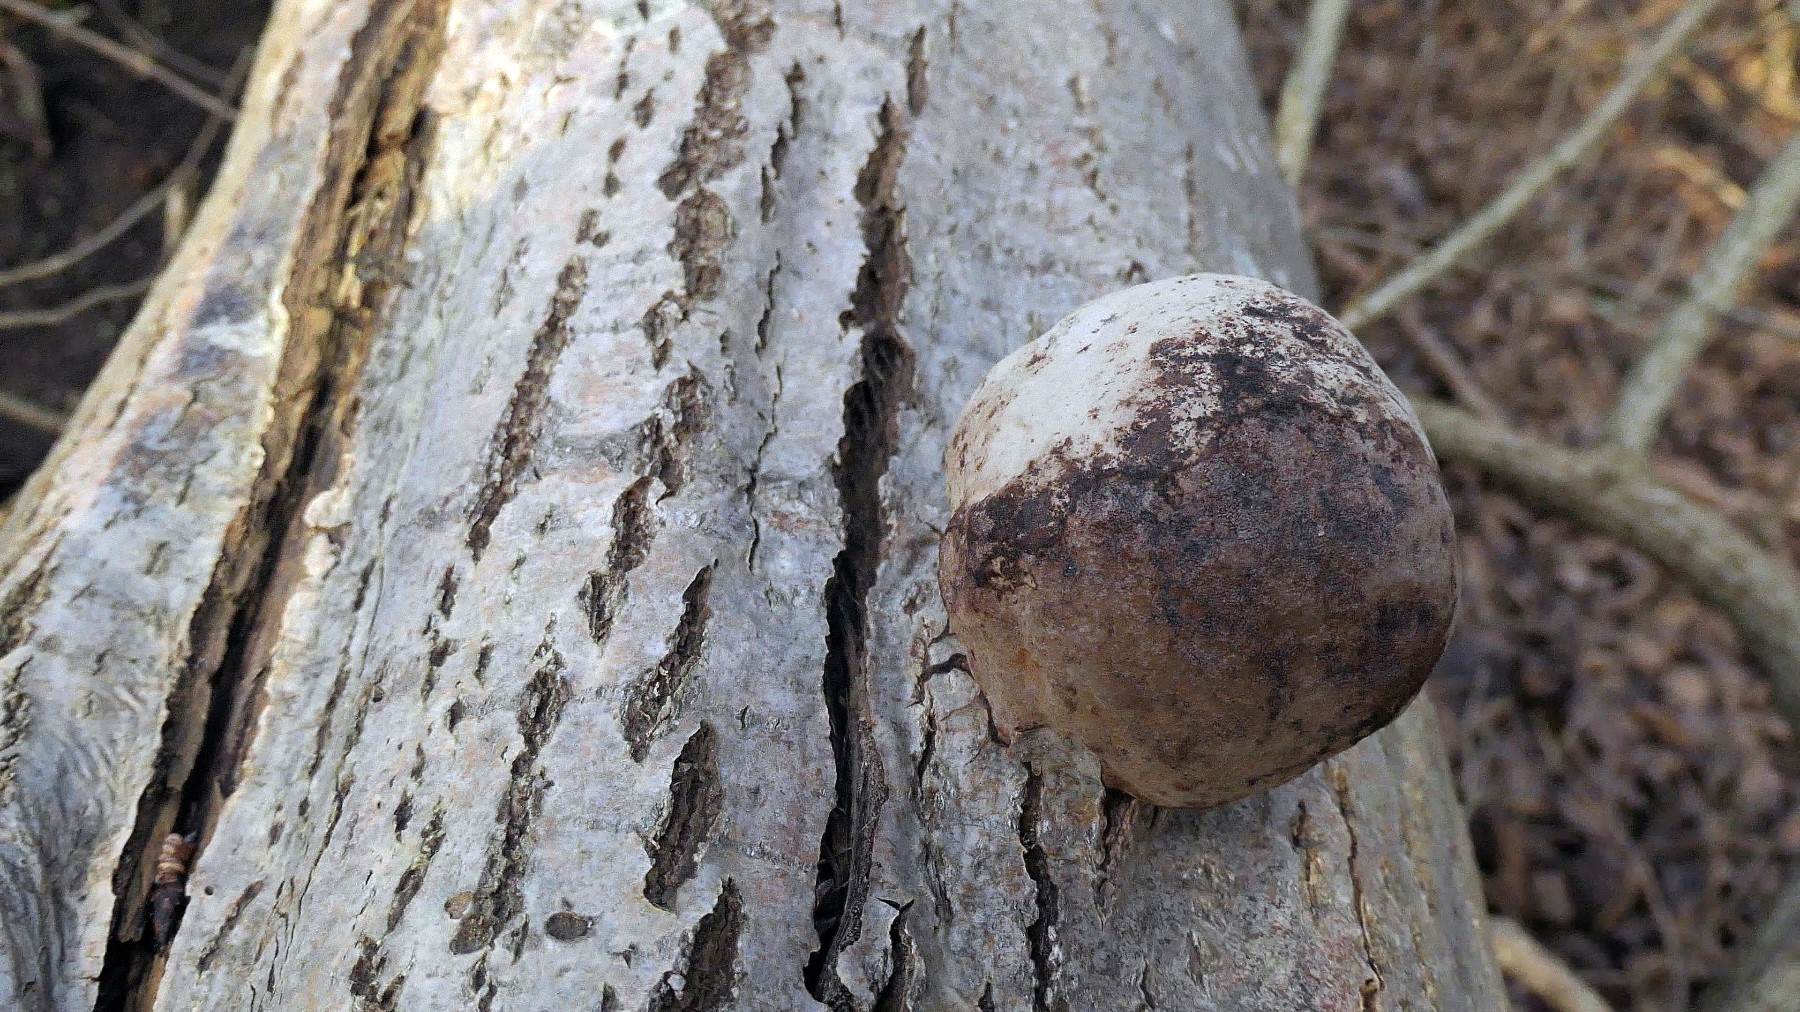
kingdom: Fungi
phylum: Basidiomycota
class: Agaricomycetes
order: Polyporales
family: Polyporaceae
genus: Fomes
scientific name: Fomes fomentarius
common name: tøndersvamp
